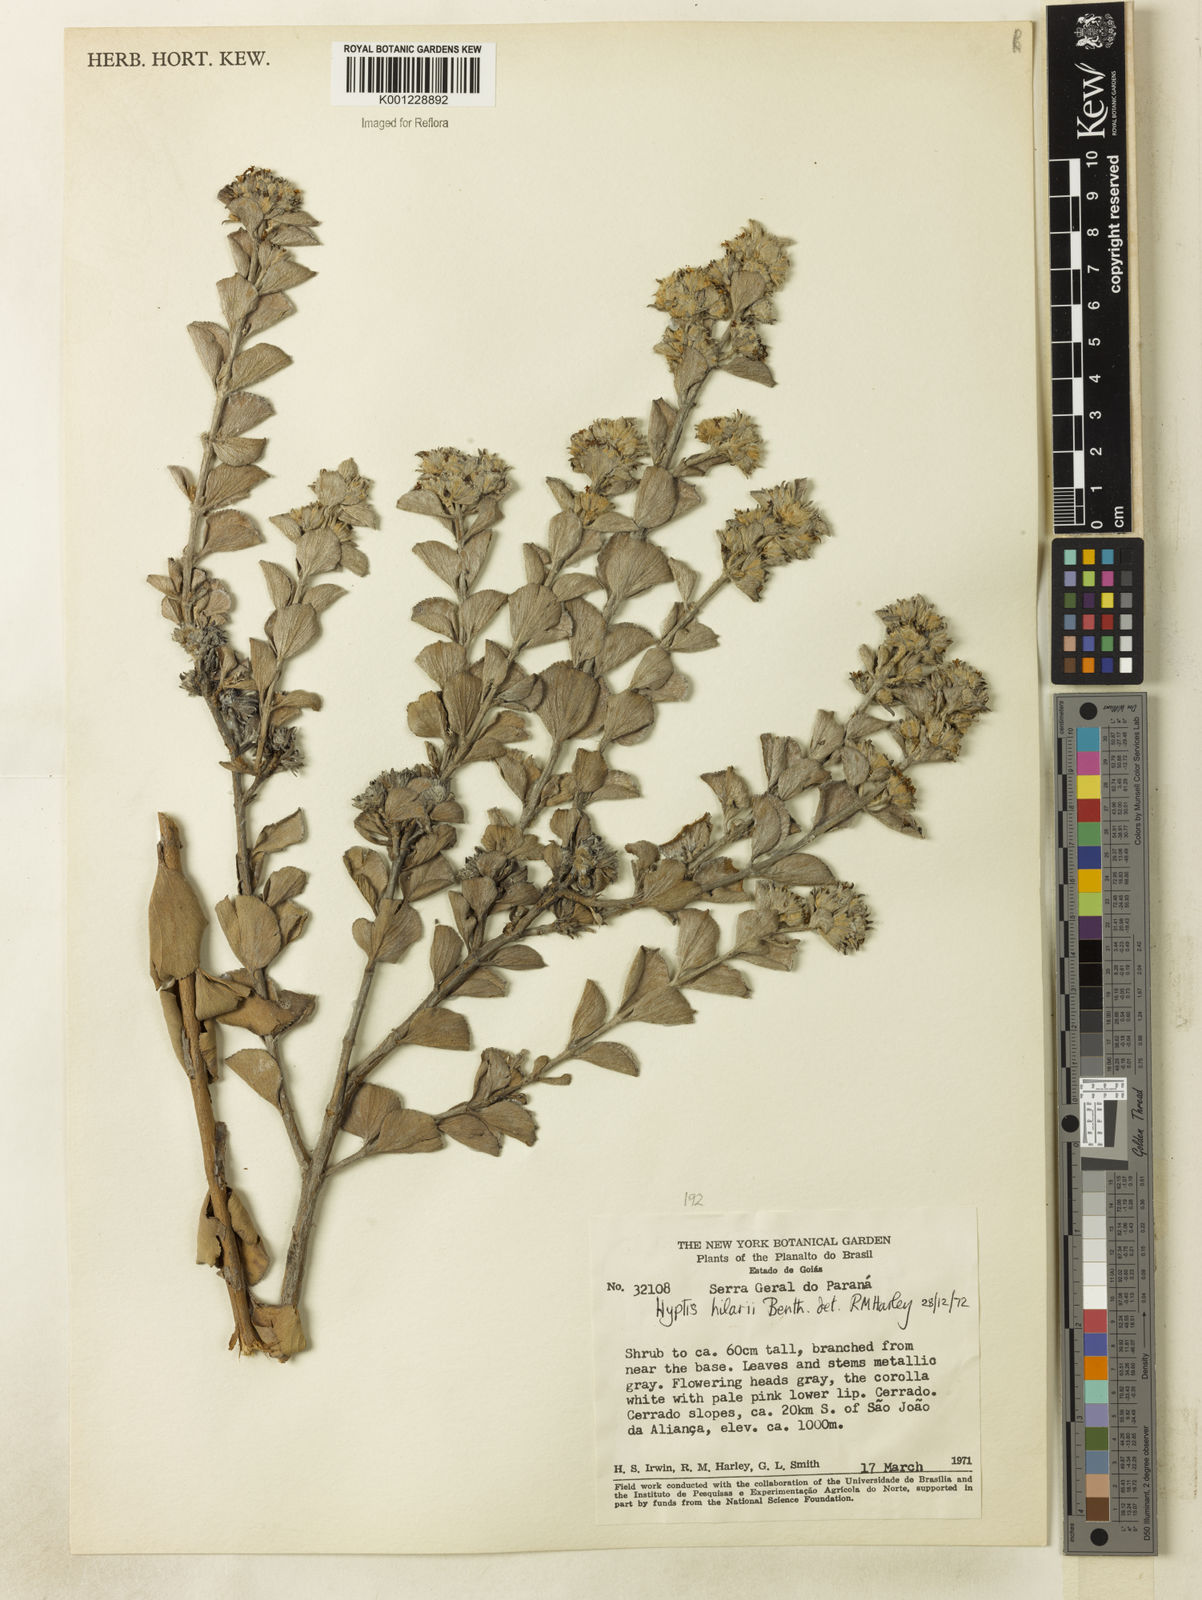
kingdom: Plantae
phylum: Tracheophyta
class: Magnoliopsida
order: Lamiales
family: Lamiaceae
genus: Hyptis
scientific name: Hyptis hilarii
